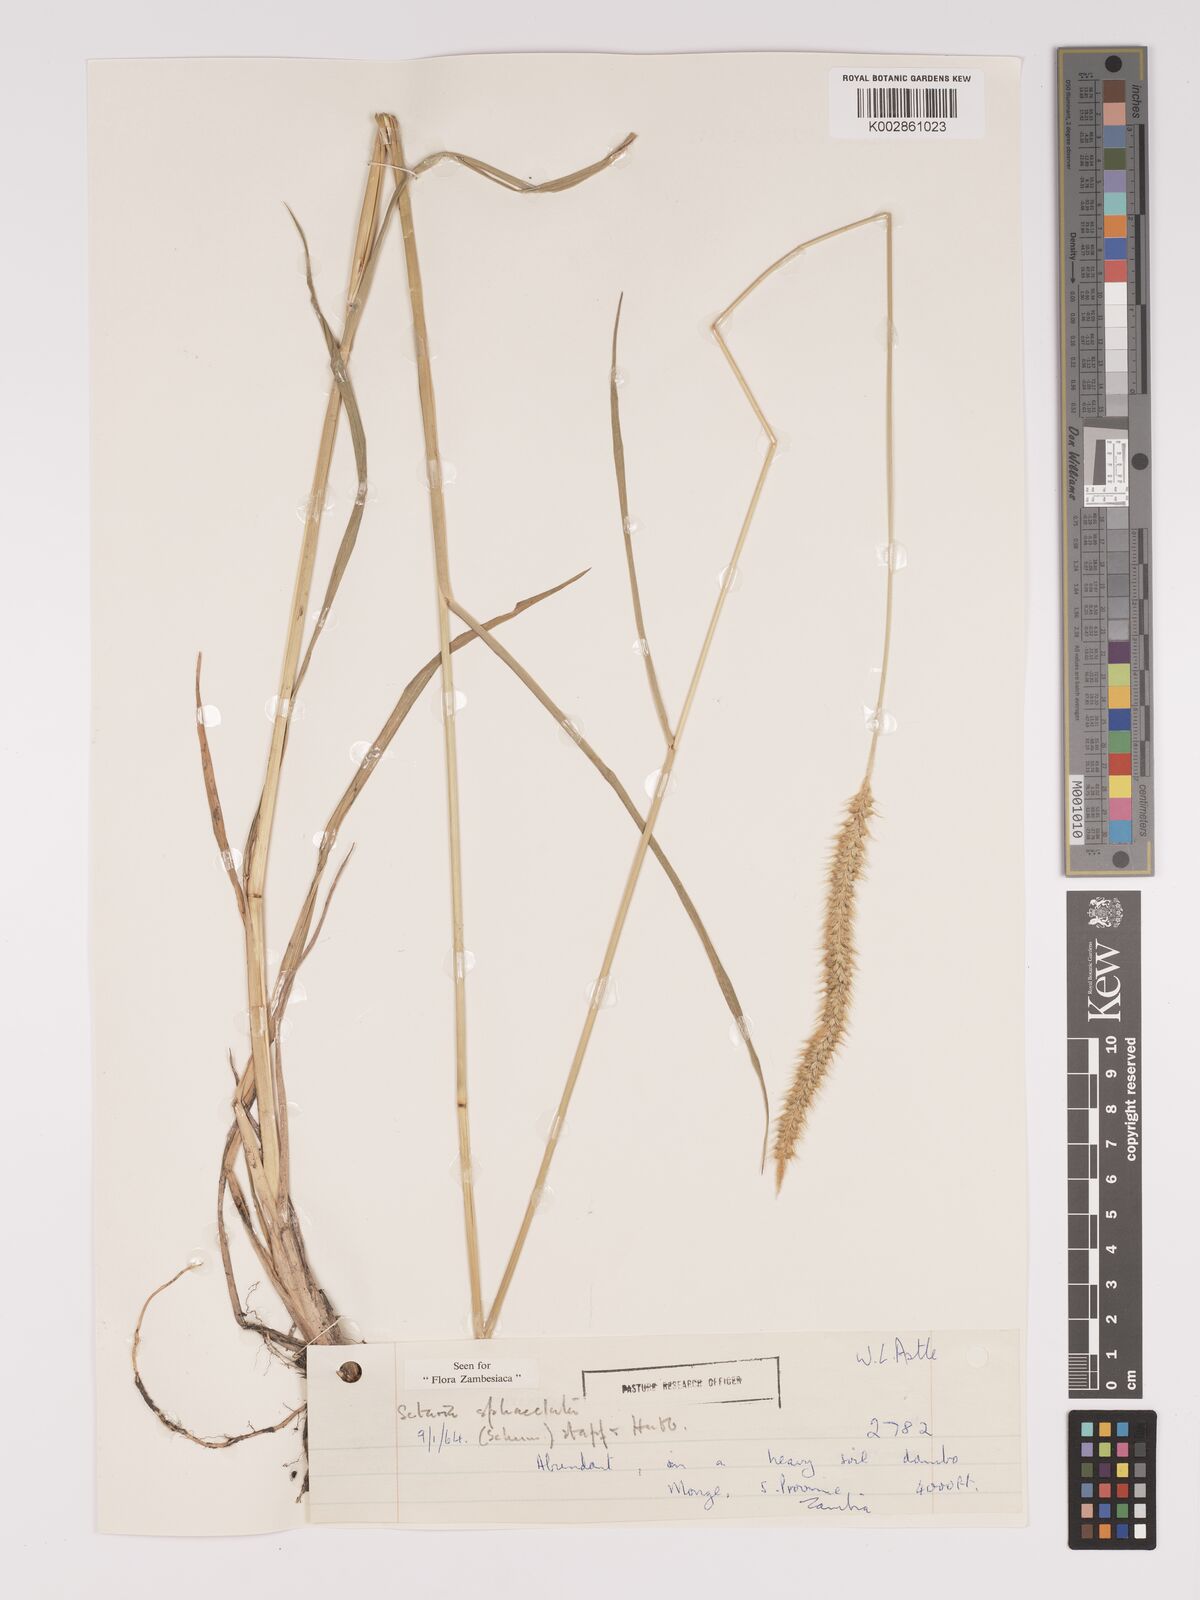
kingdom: Plantae
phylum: Tracheophyta
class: Liliopsida
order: Poales
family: Poaceae
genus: Setaria
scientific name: Setaria sphacelata
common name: African bristlegrass
